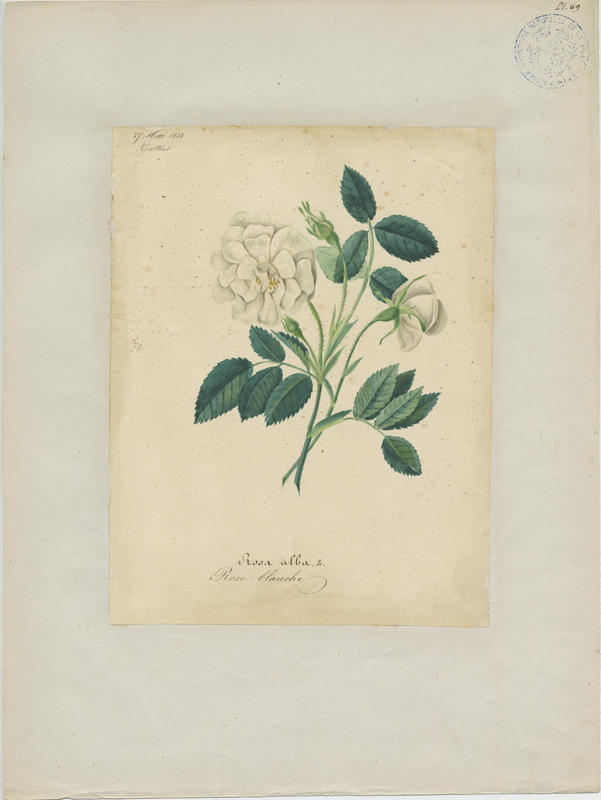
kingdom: Plantae
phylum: Tracheophyta
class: Magnoliopsida
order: Rosales
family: Rosaceae
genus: Rosa
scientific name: Rosa alba
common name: White rose
